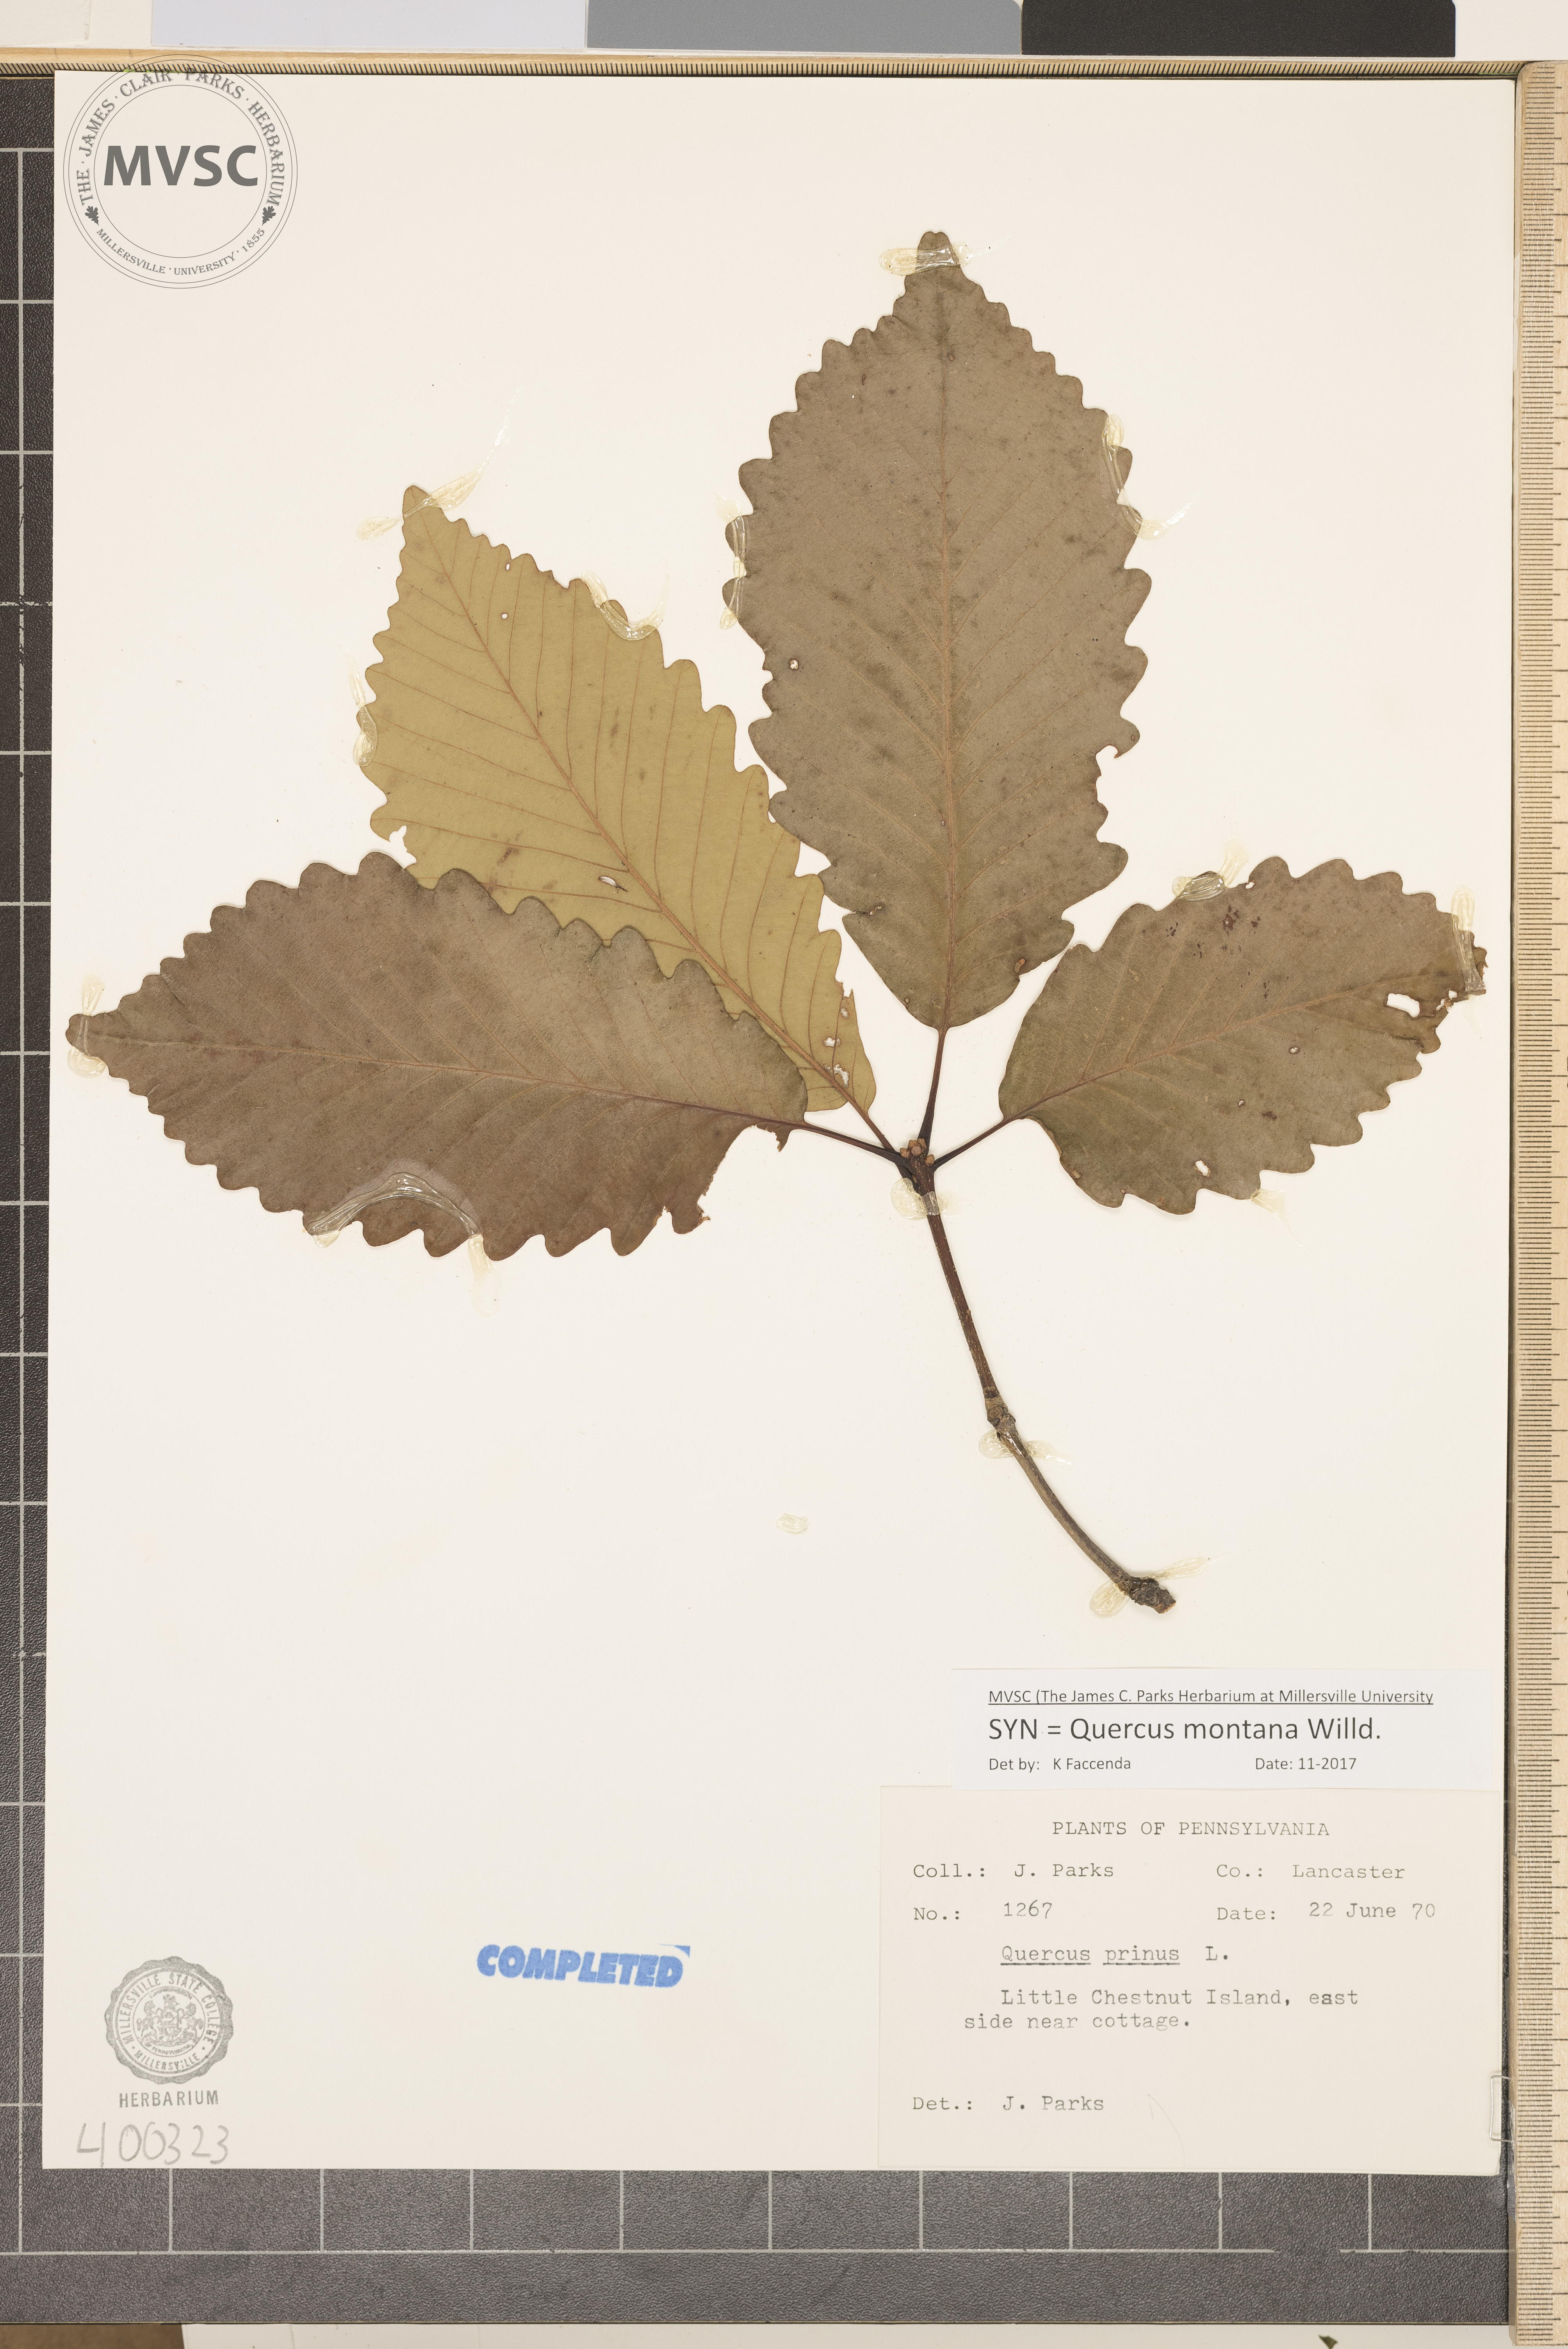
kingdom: Plantae
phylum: Tracheophyta
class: Magnoliopsida
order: Fagales
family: Fagaceae
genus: Quercus
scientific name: Quercus montana
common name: chestnut oak
